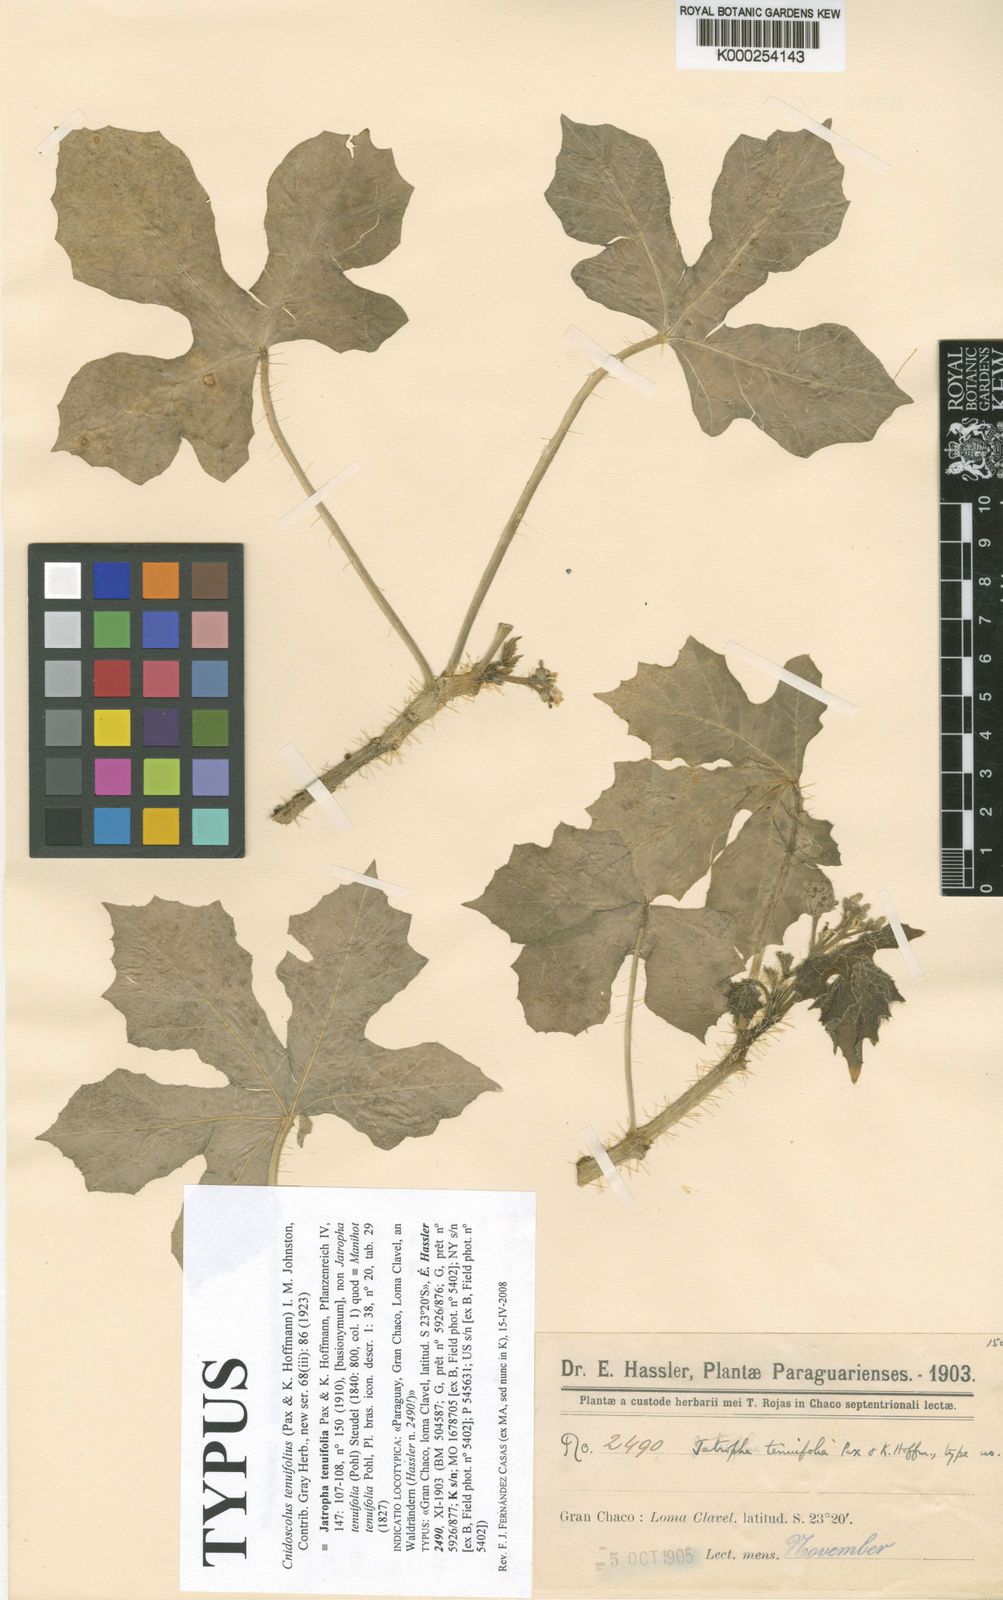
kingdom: Plantae
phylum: Tracheophyta
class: Magnoliopsida
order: Malpighiales
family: Euphorbiaceae
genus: Cnidoscolus
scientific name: Cnidoscolus tenuifolius
